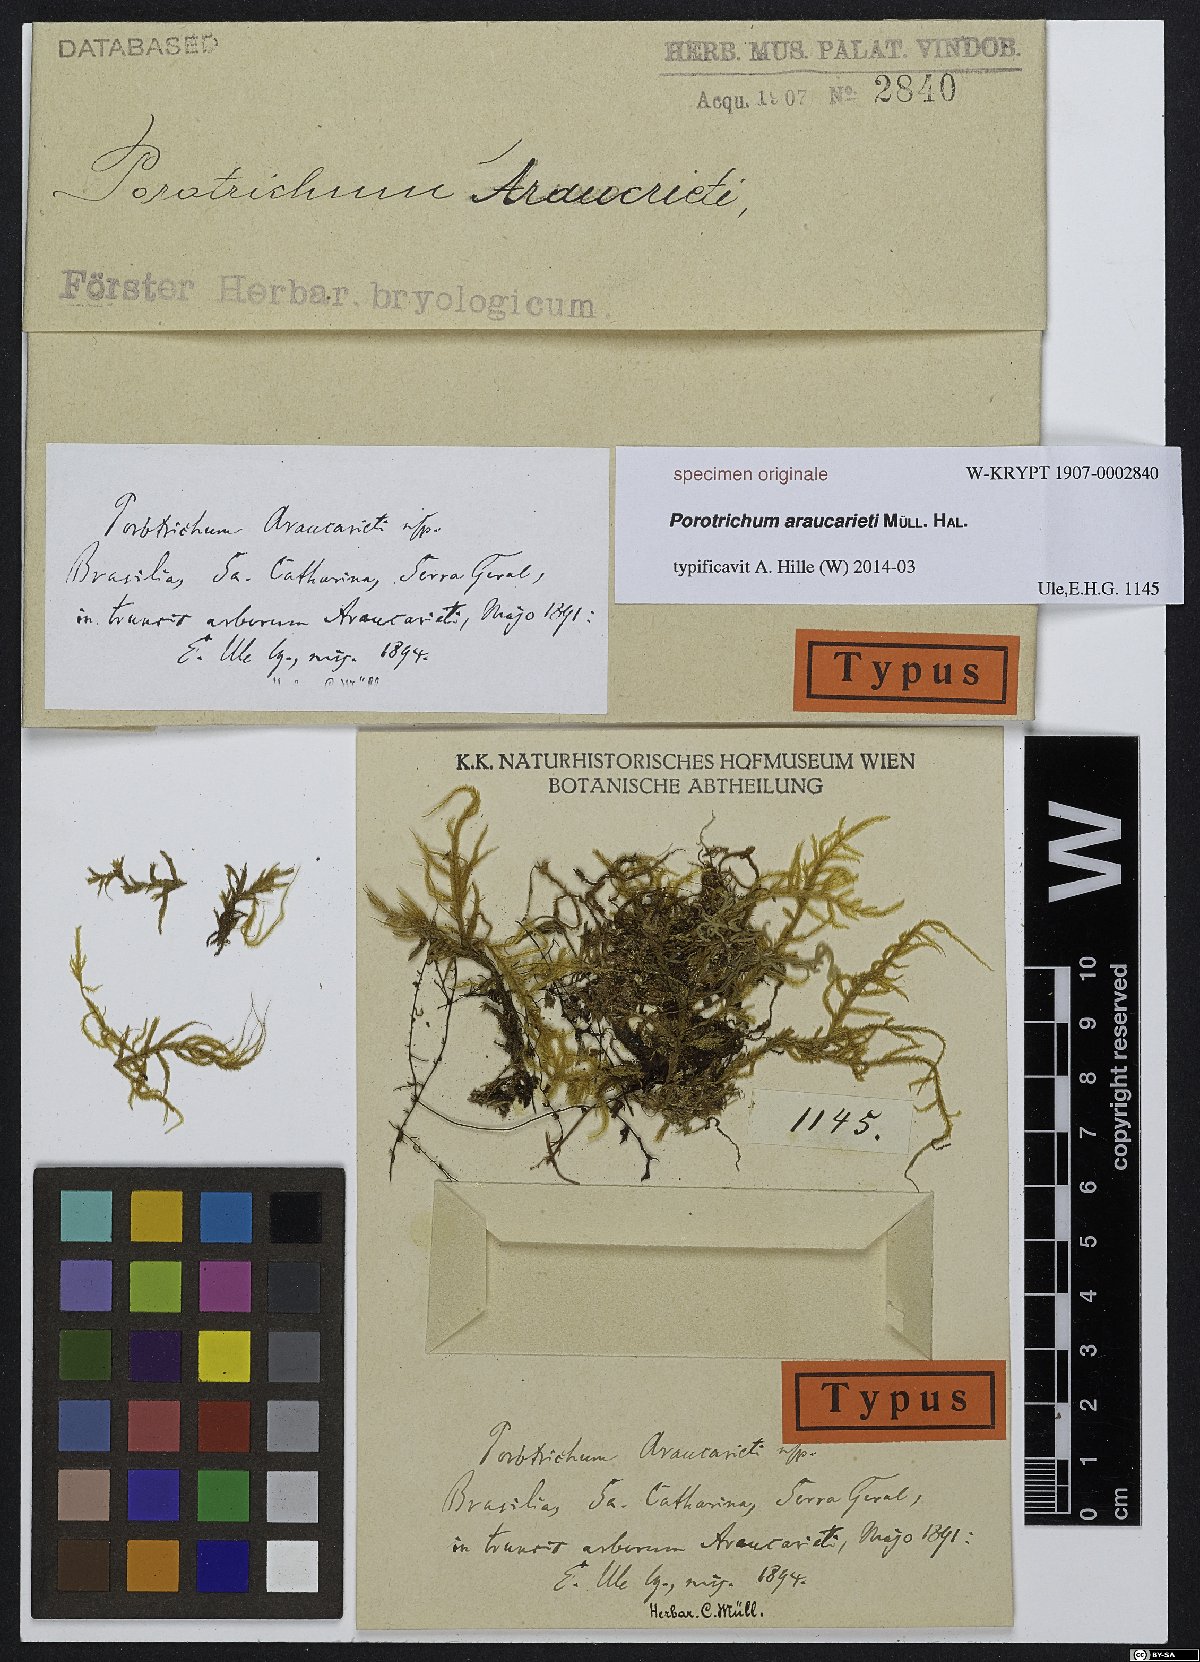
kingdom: Plantae
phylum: Bryophyta
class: Bryopsida
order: Hypnales
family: Neckeraceae
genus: Porotrichum
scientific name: Porotrichum
